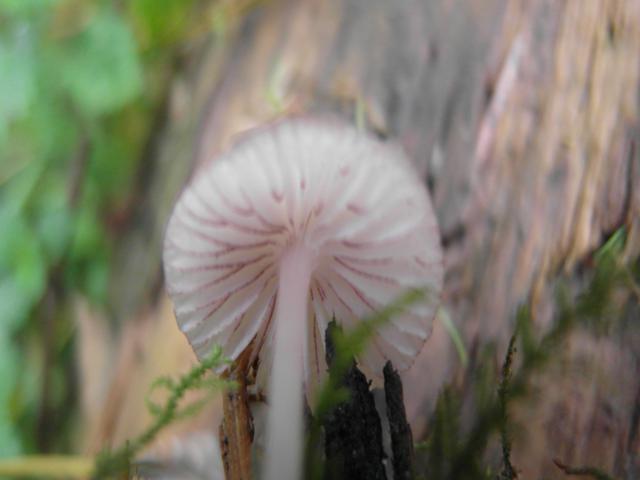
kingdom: Fungi
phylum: Basidiomycota
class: Agaricomycetes
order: Agaricales
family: Mycenaceae
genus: Mycena
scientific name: Mycena rubromarginata
